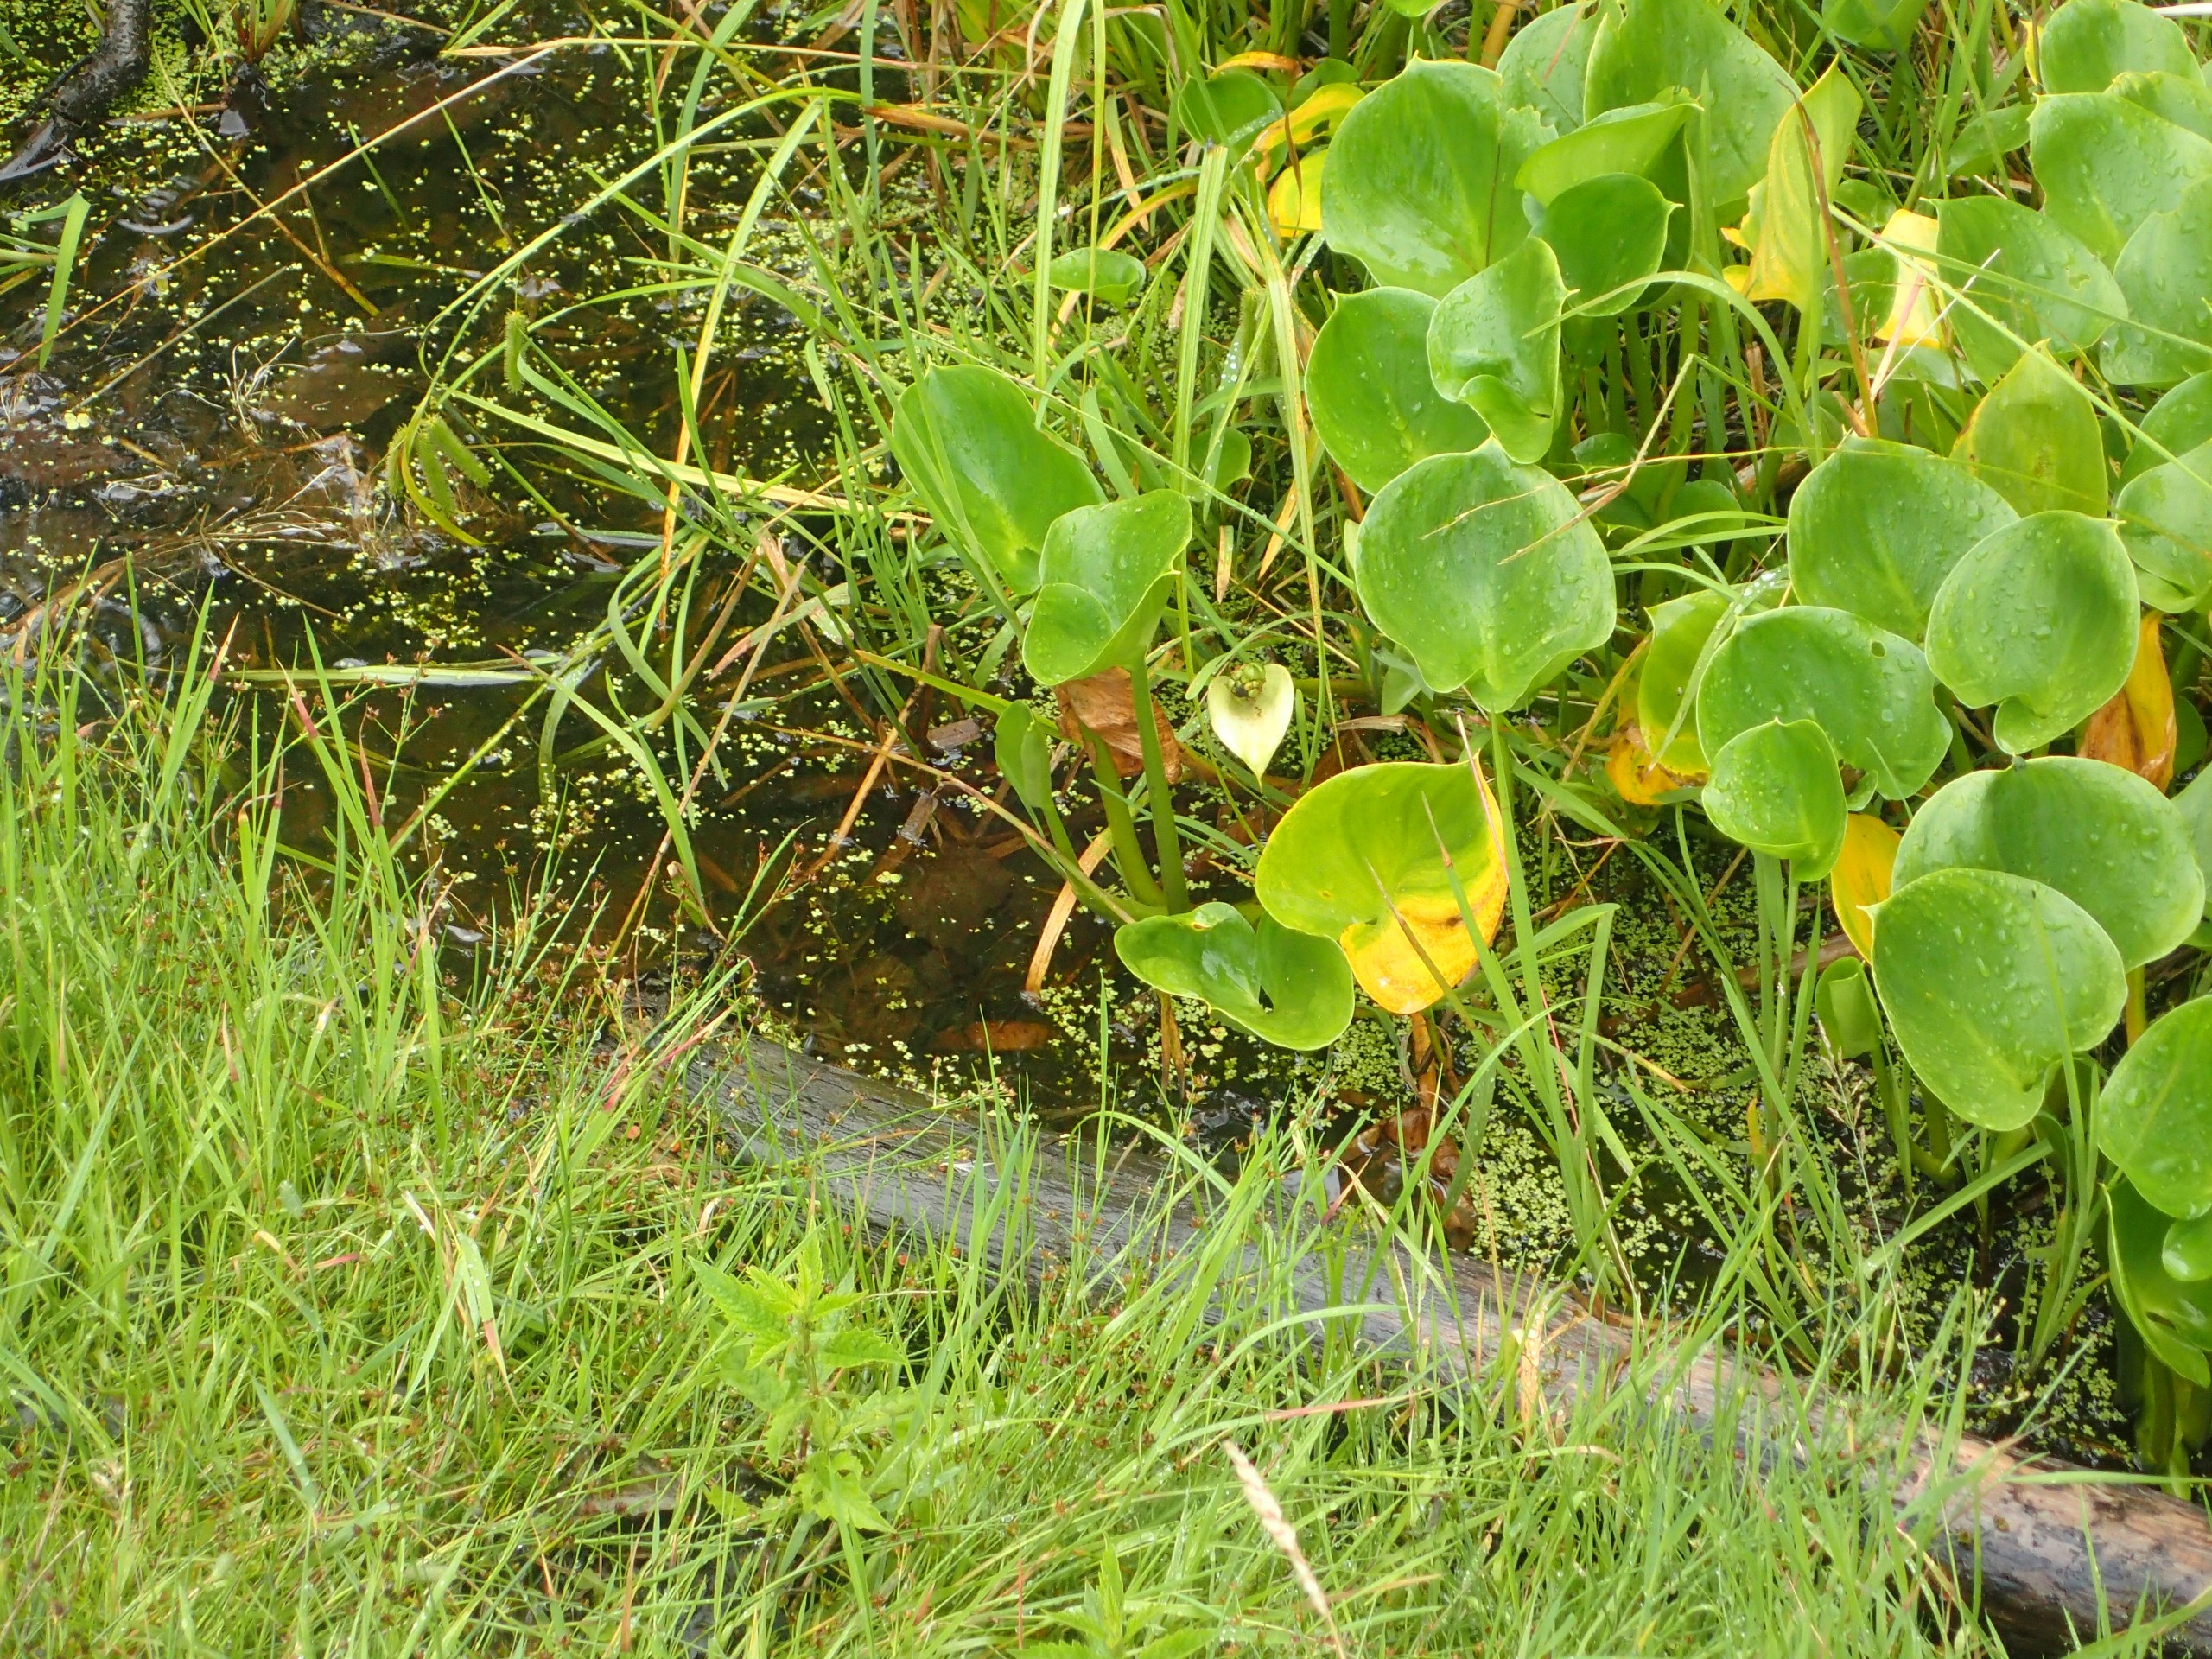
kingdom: Plantae
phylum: Tracheophyta
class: Liliopsida
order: Alismatales
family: Araceae
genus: Calla
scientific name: Calla palustris
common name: Kærmysse
